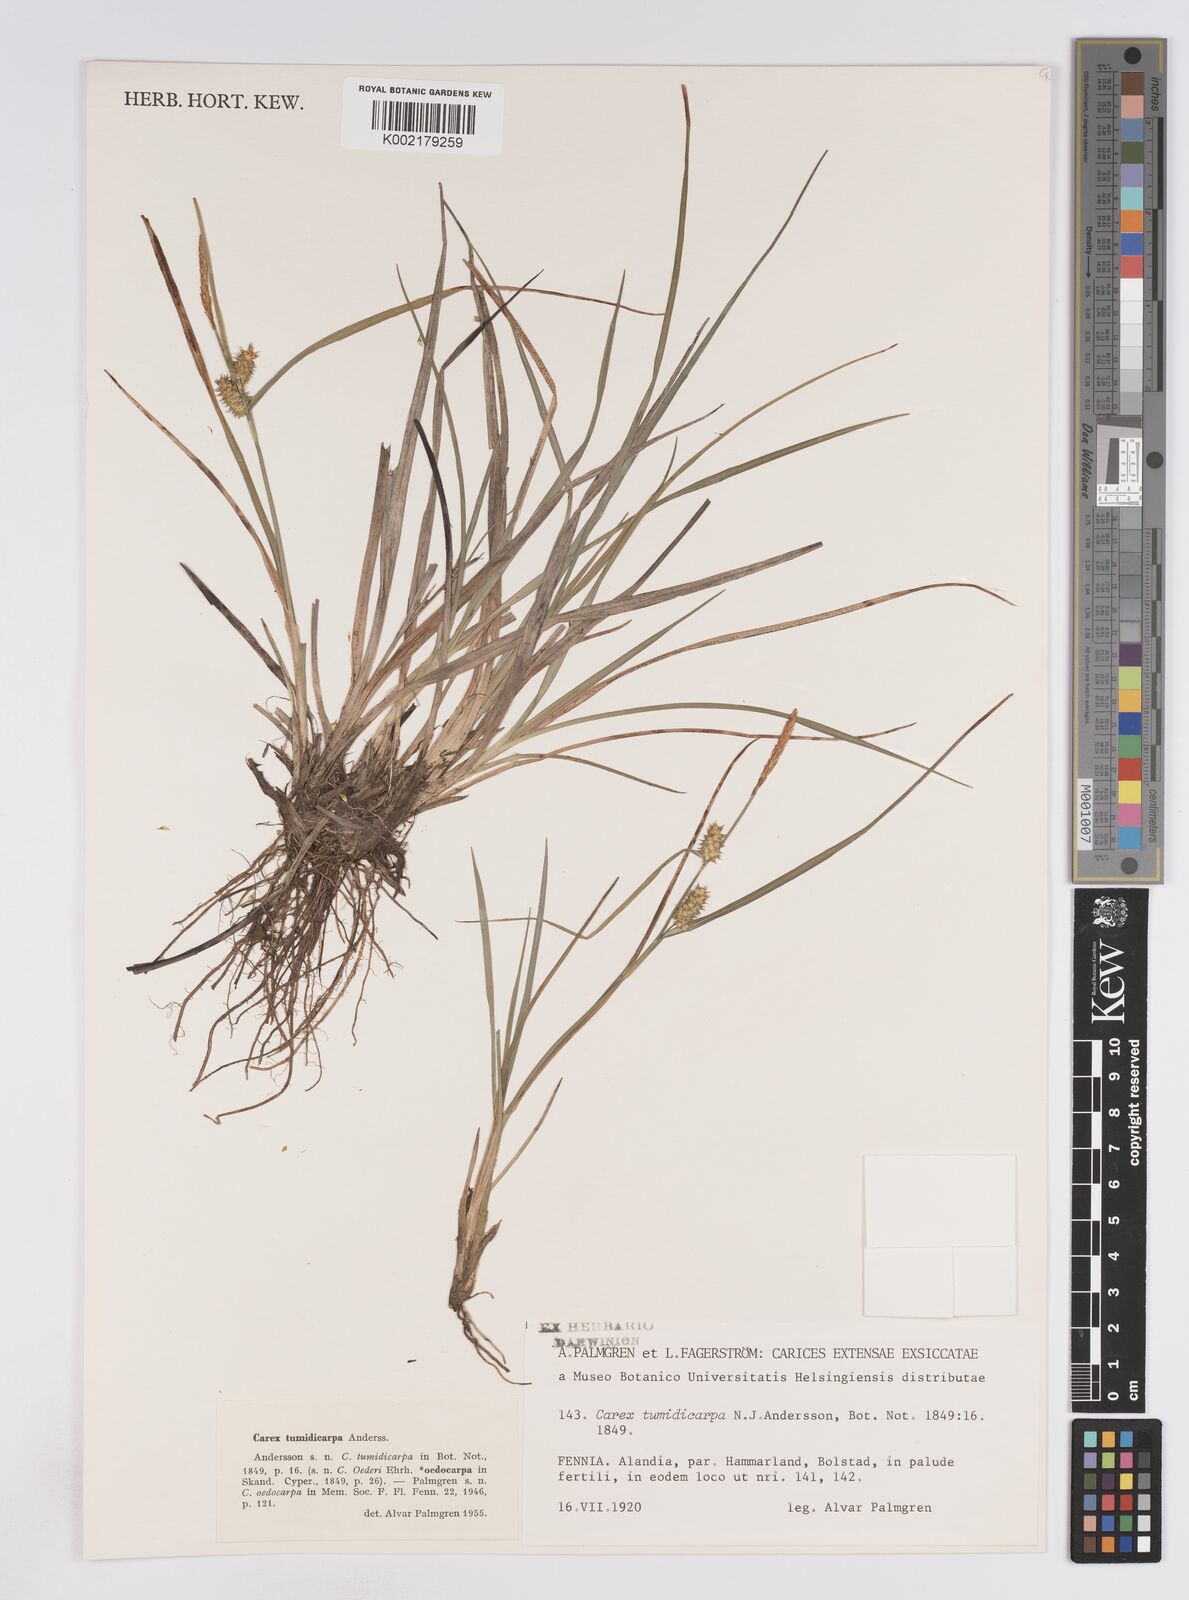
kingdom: Plantae
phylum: Tracheophyta
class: Liliopsida
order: Poales
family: Cyperaceae
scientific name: Cyperaceae
